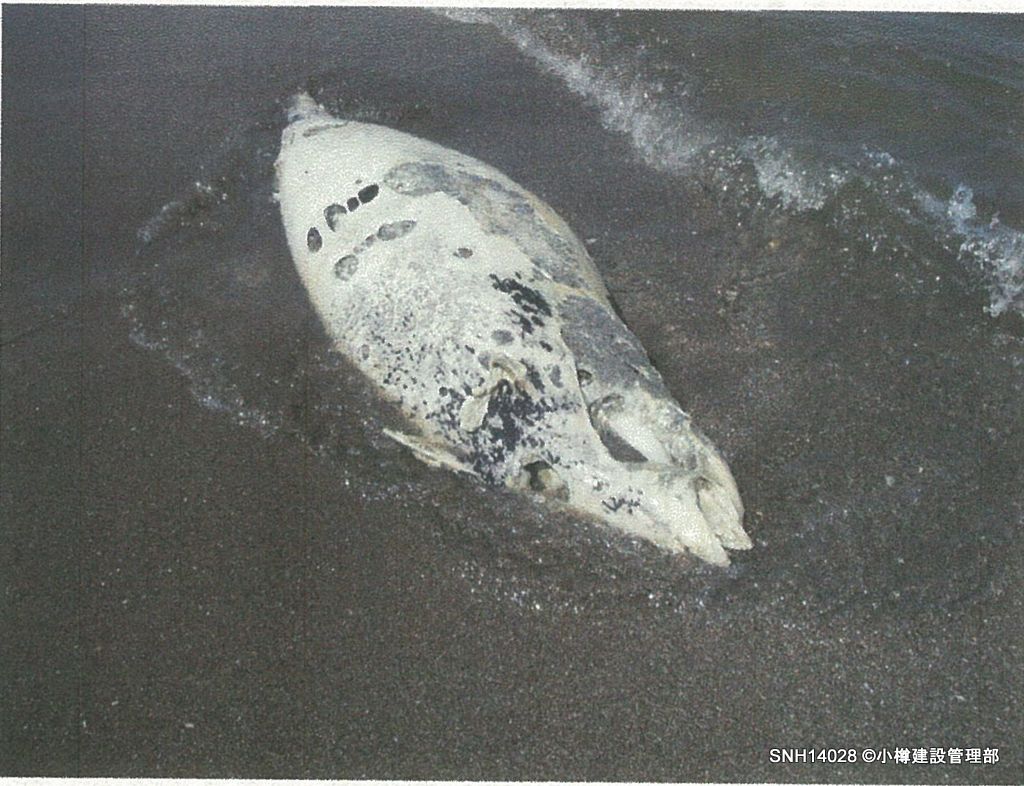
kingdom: Animalia
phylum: Chordata
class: Mammalia
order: Cetacea
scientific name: Cetacea
